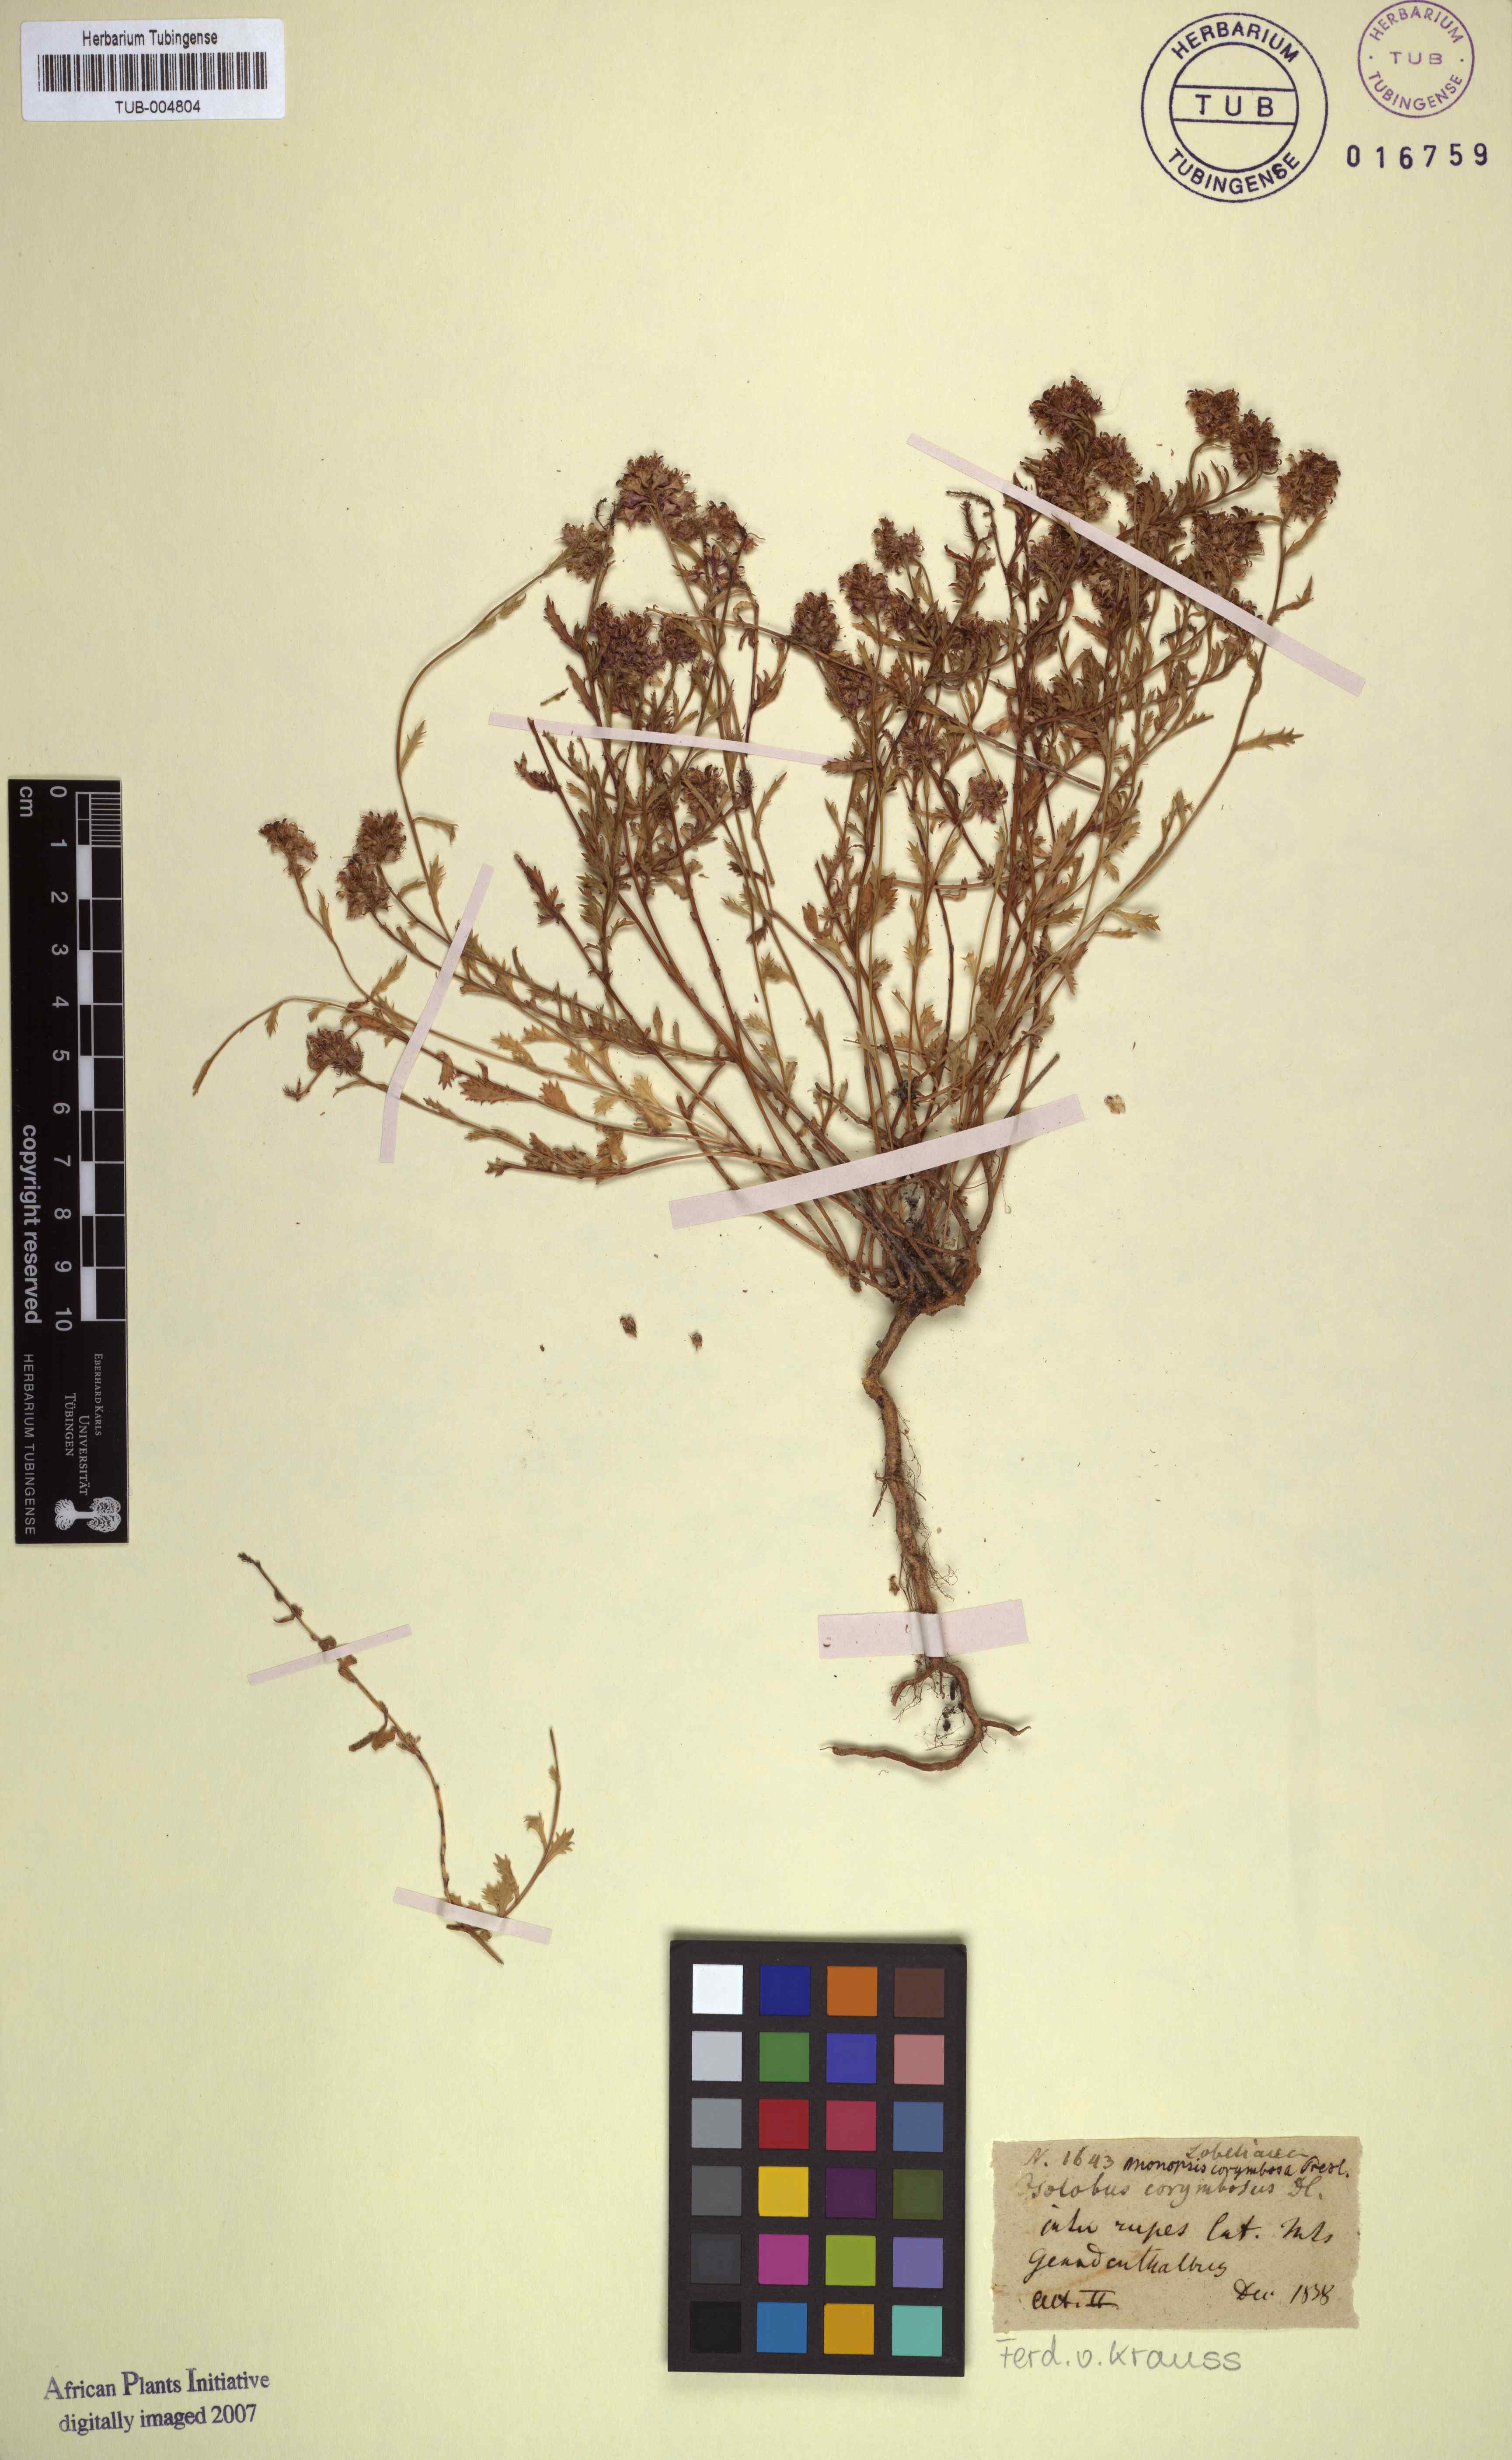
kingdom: Plantae
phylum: Tracheophyta
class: Magnoliopsida
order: Asterales
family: Campanulaceae
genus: Lobelia
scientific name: Lobelia jasionoides
